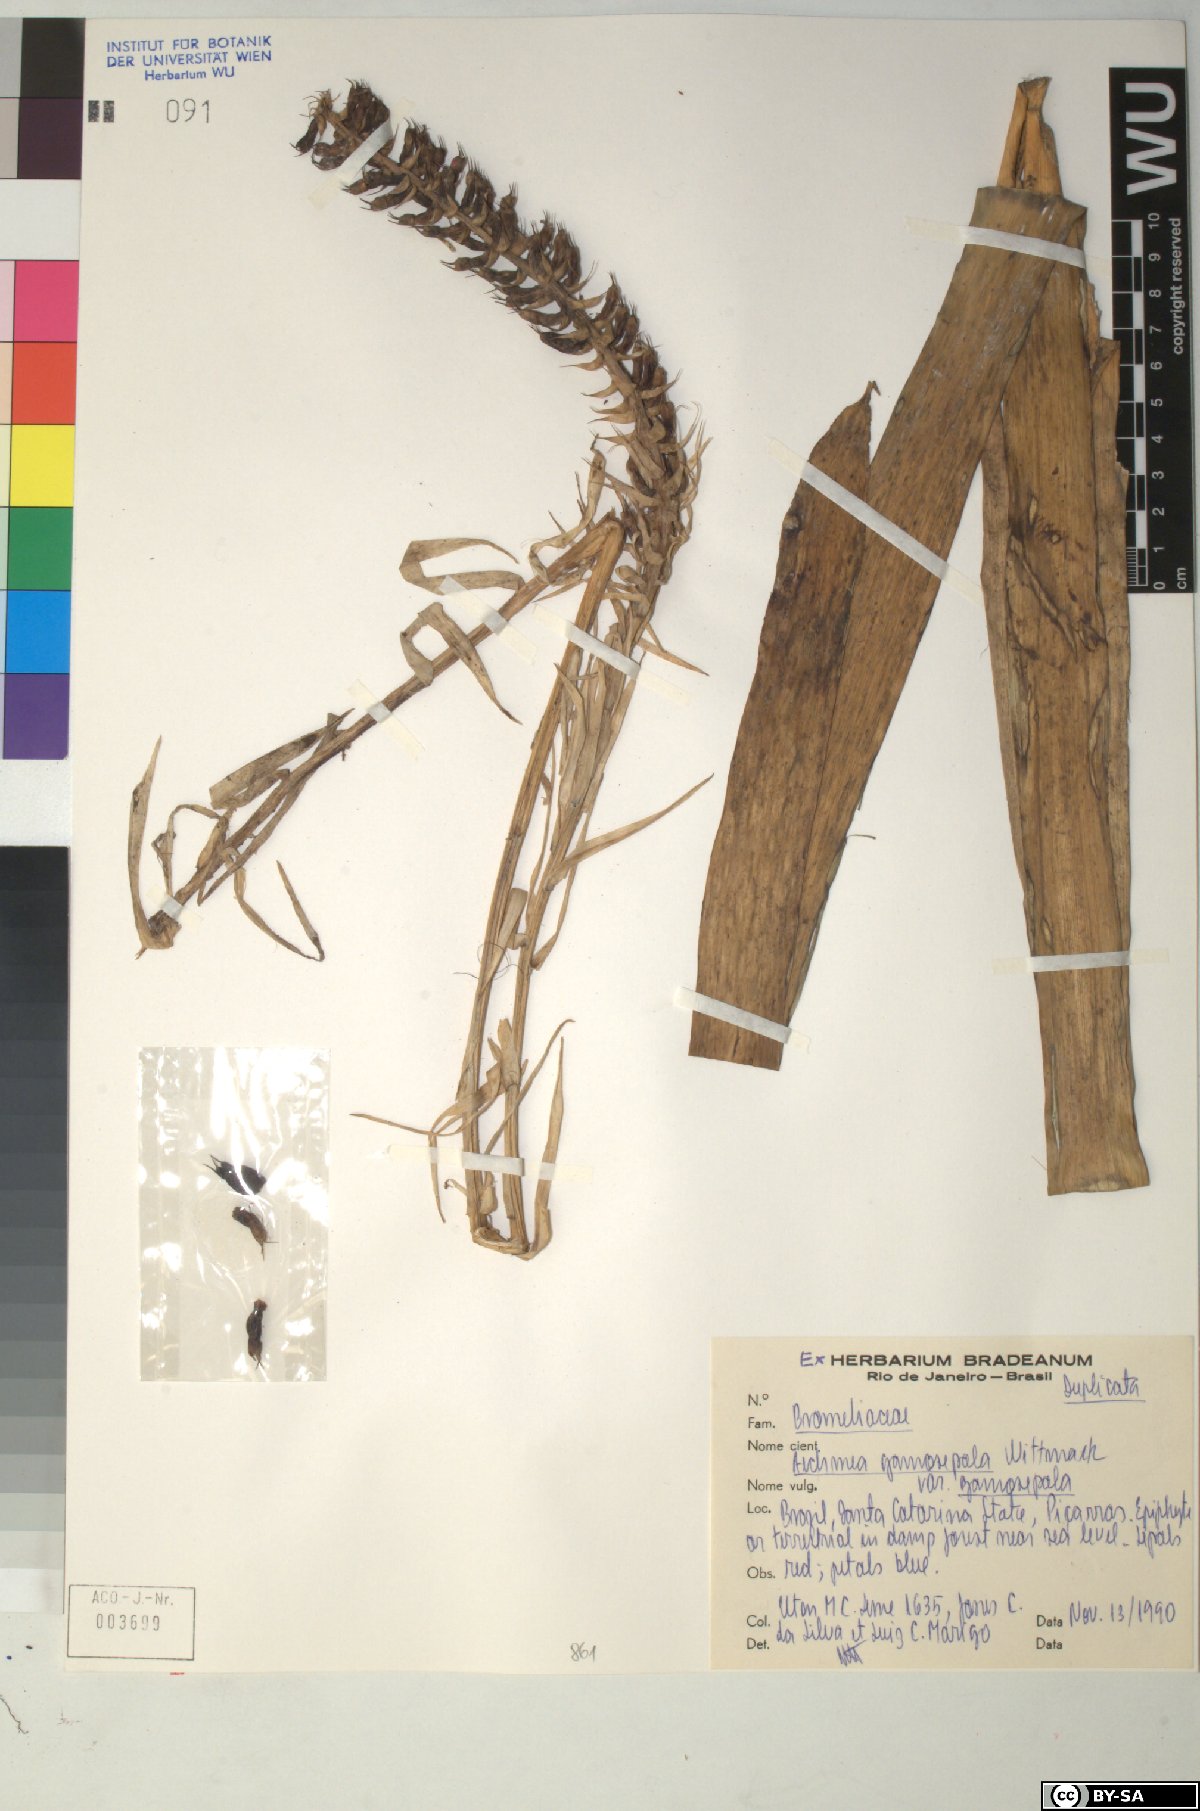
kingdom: Plantae
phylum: Tracheophyta
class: Liliopsida
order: Poales
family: Bromeliaceae
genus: Aechmea
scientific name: Aechmea
